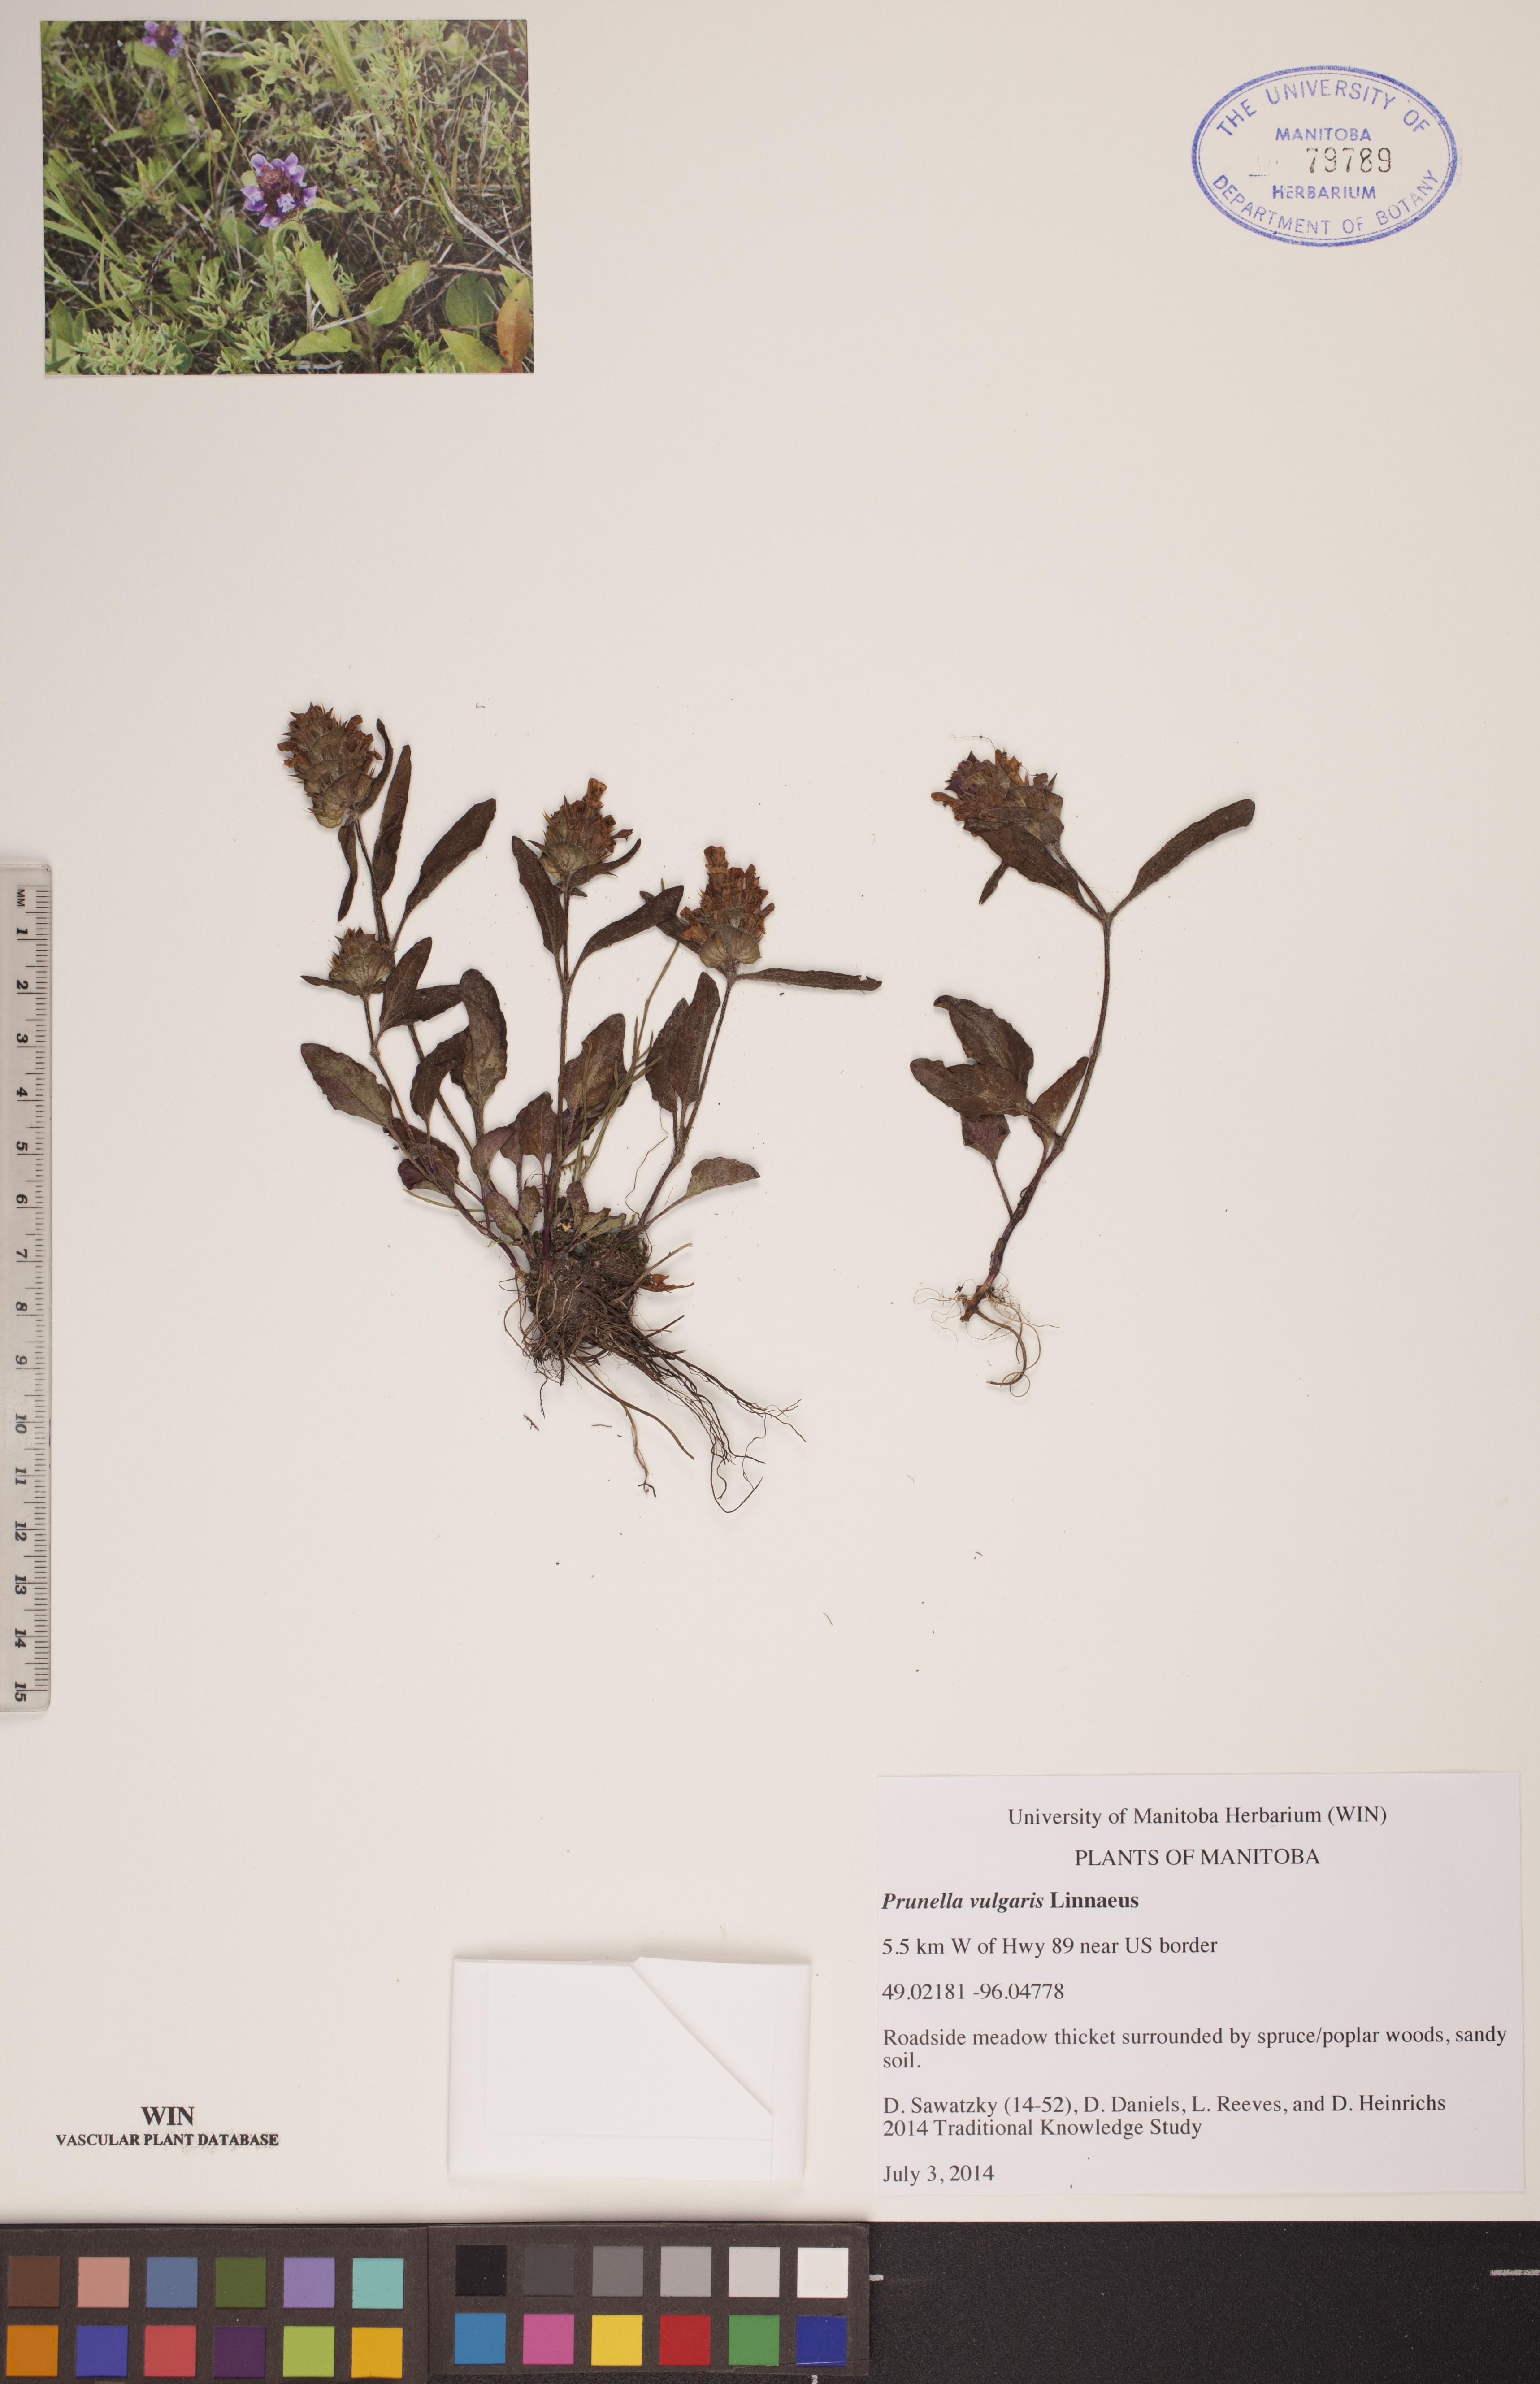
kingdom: Plantae
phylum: Tracheophyta
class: Magnoliopsida
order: Lamiales
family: Lamiaceae
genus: Prunella
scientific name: Prunella vulgaris
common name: Heal-all
